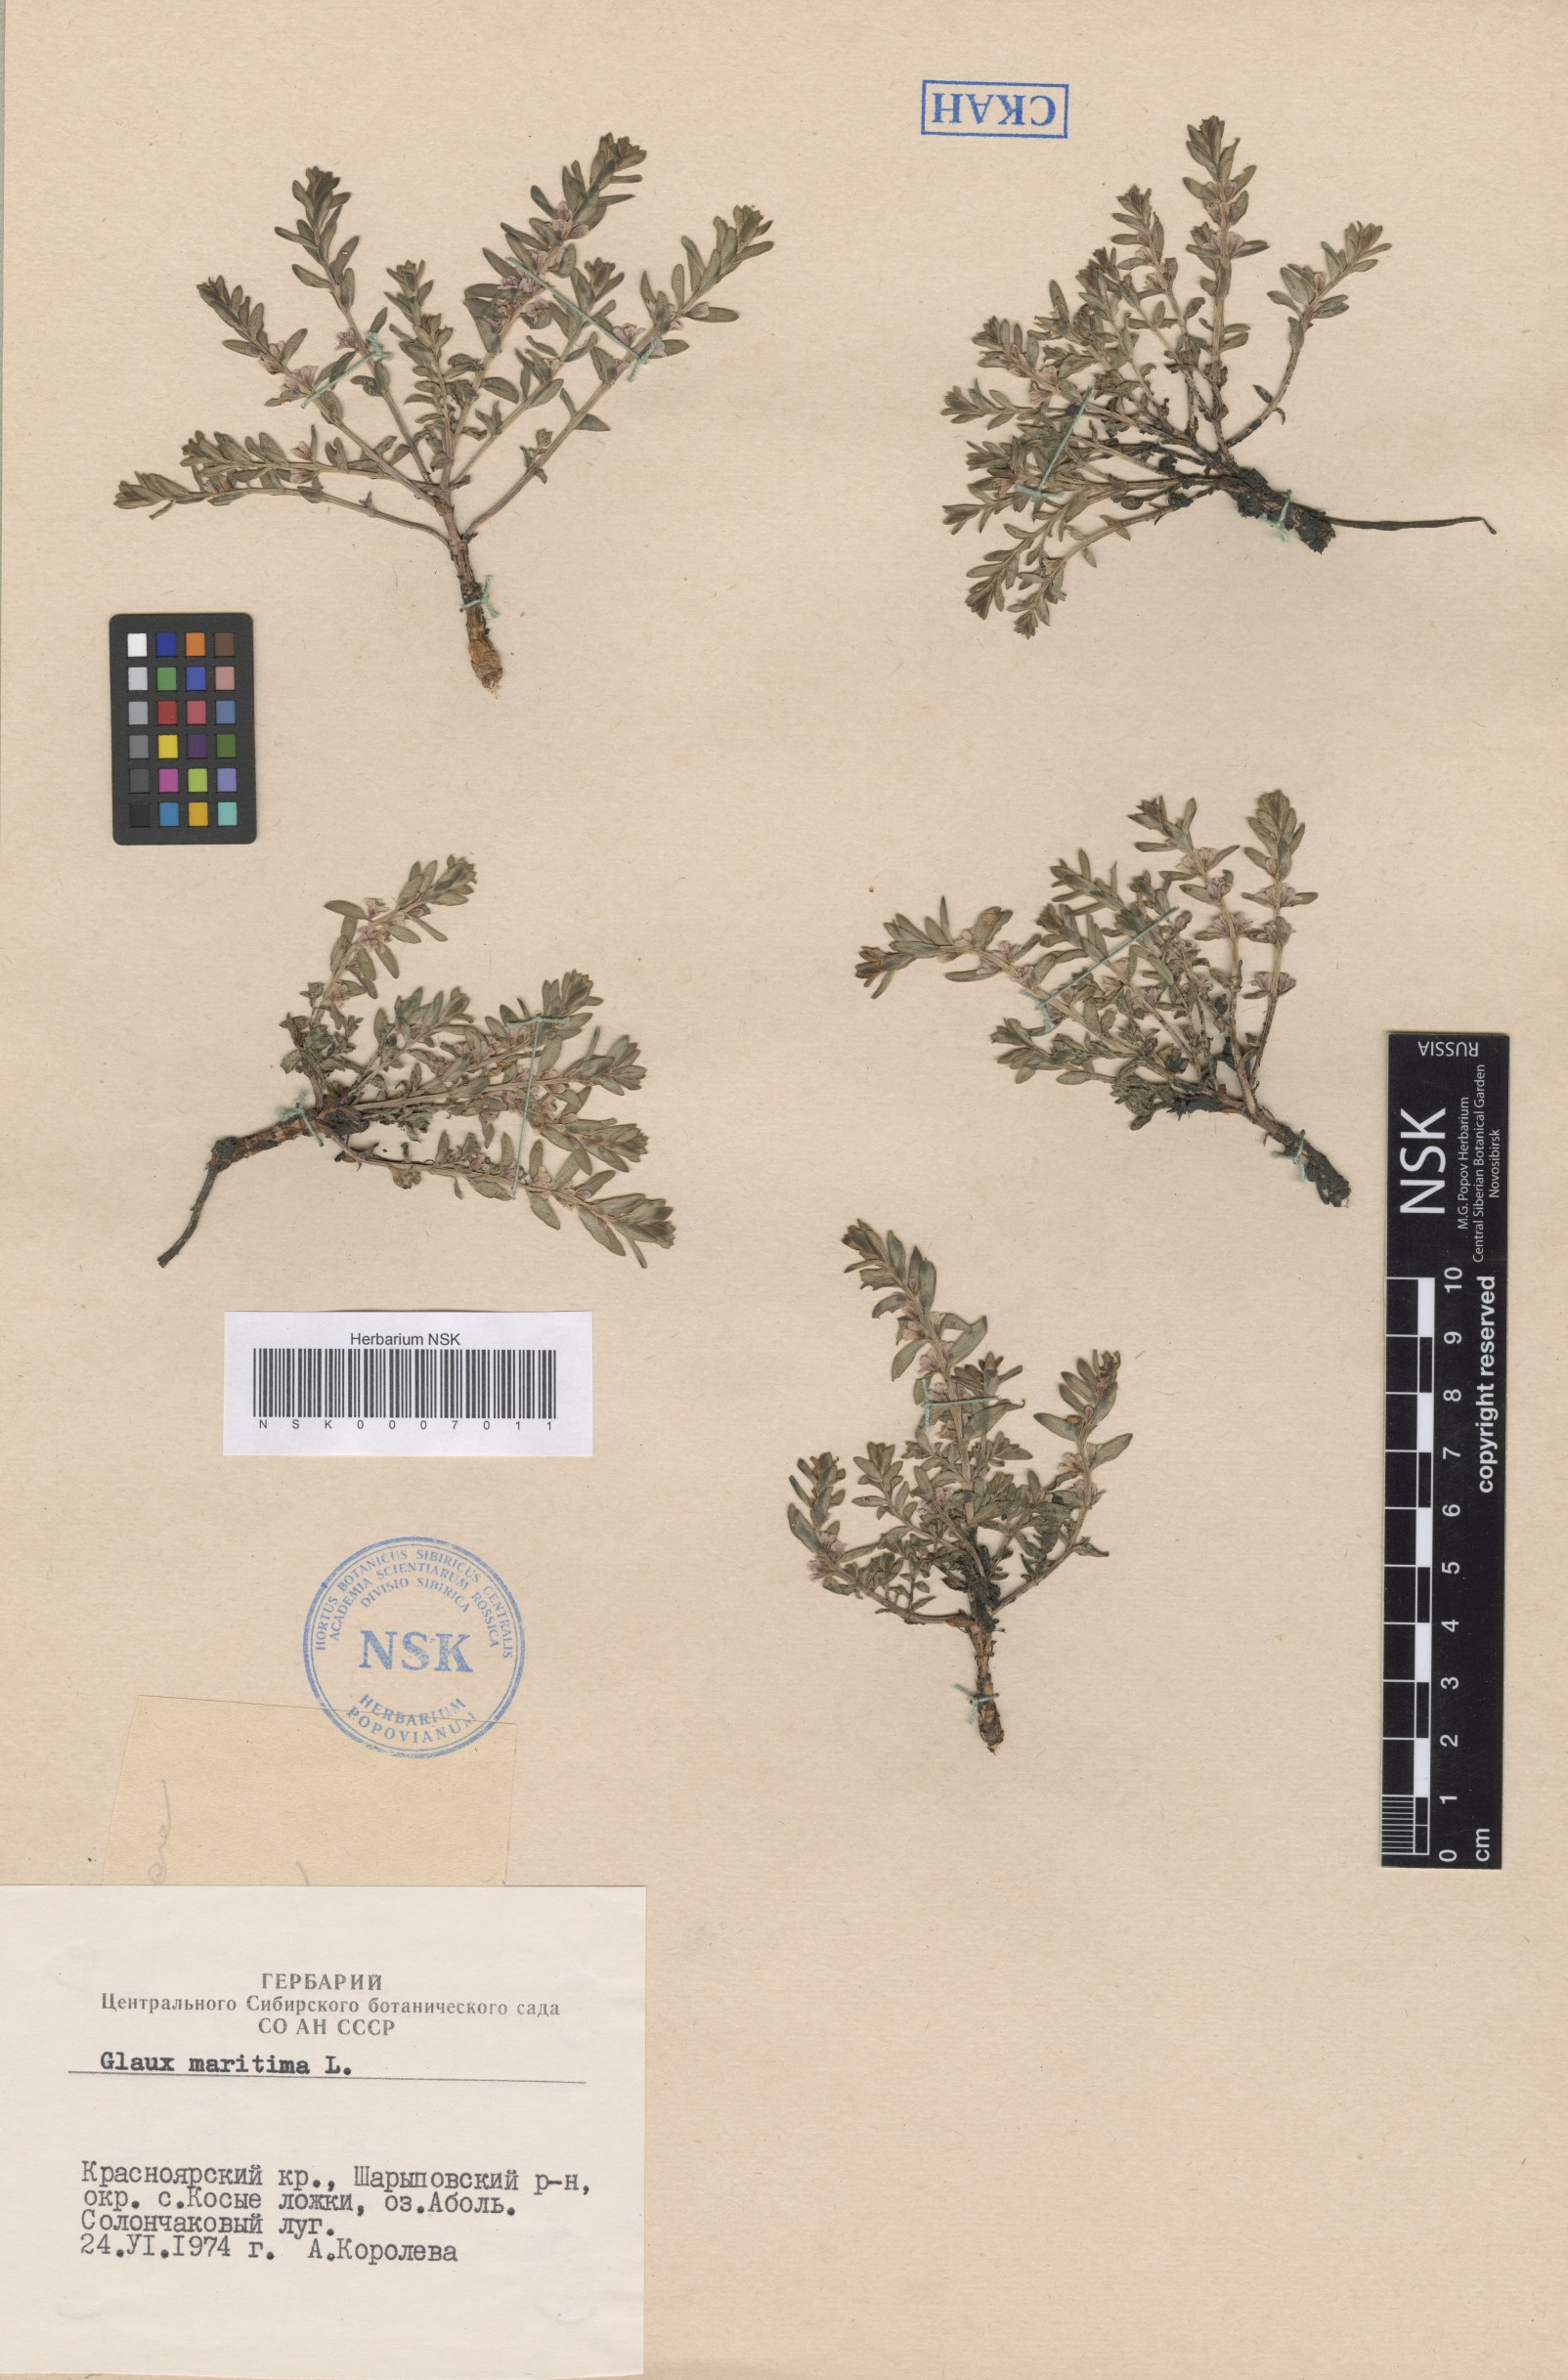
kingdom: Plantae
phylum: Tracheophyta
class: Magnoliopsida
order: Ericales
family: Primulaceae
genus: Lysimachia
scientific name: Lysimachia maritima
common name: Sea milkwort
